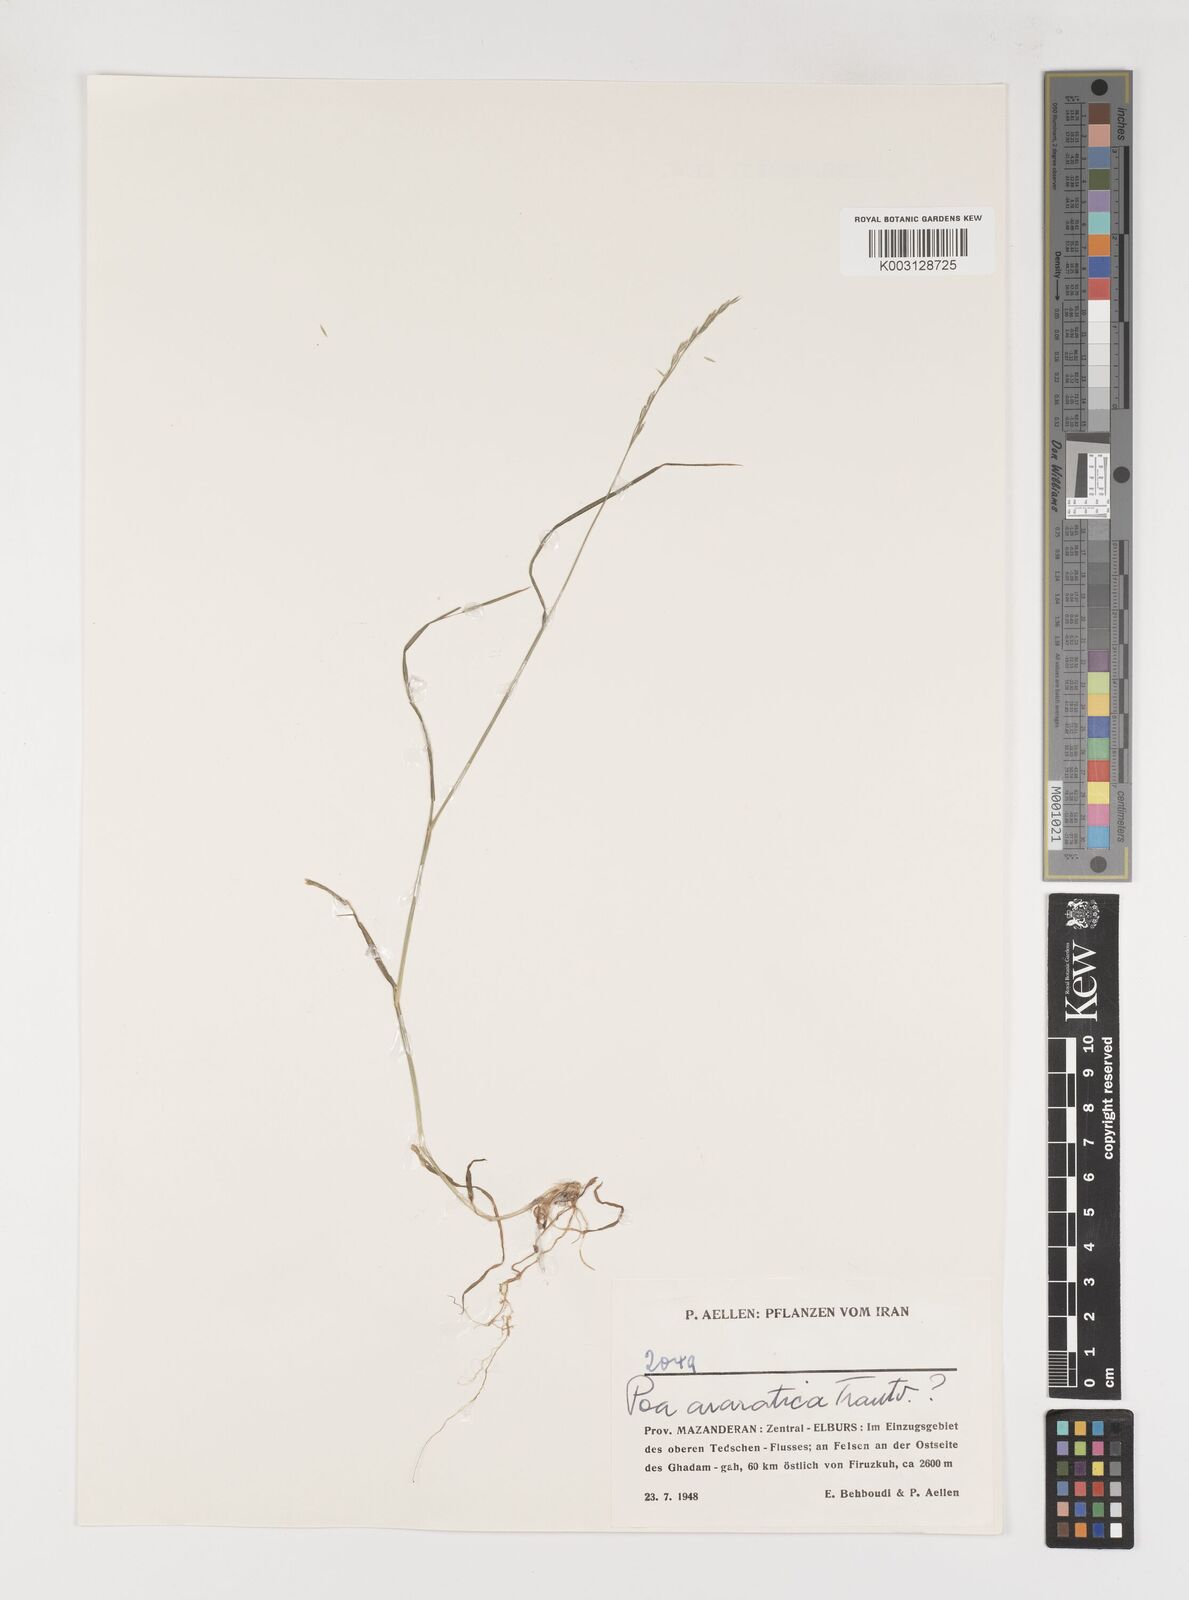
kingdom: Plantae
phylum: Tracheophyta
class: Liliopsida
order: Poales
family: Poaceae
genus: Poa
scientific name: Poa araratica
